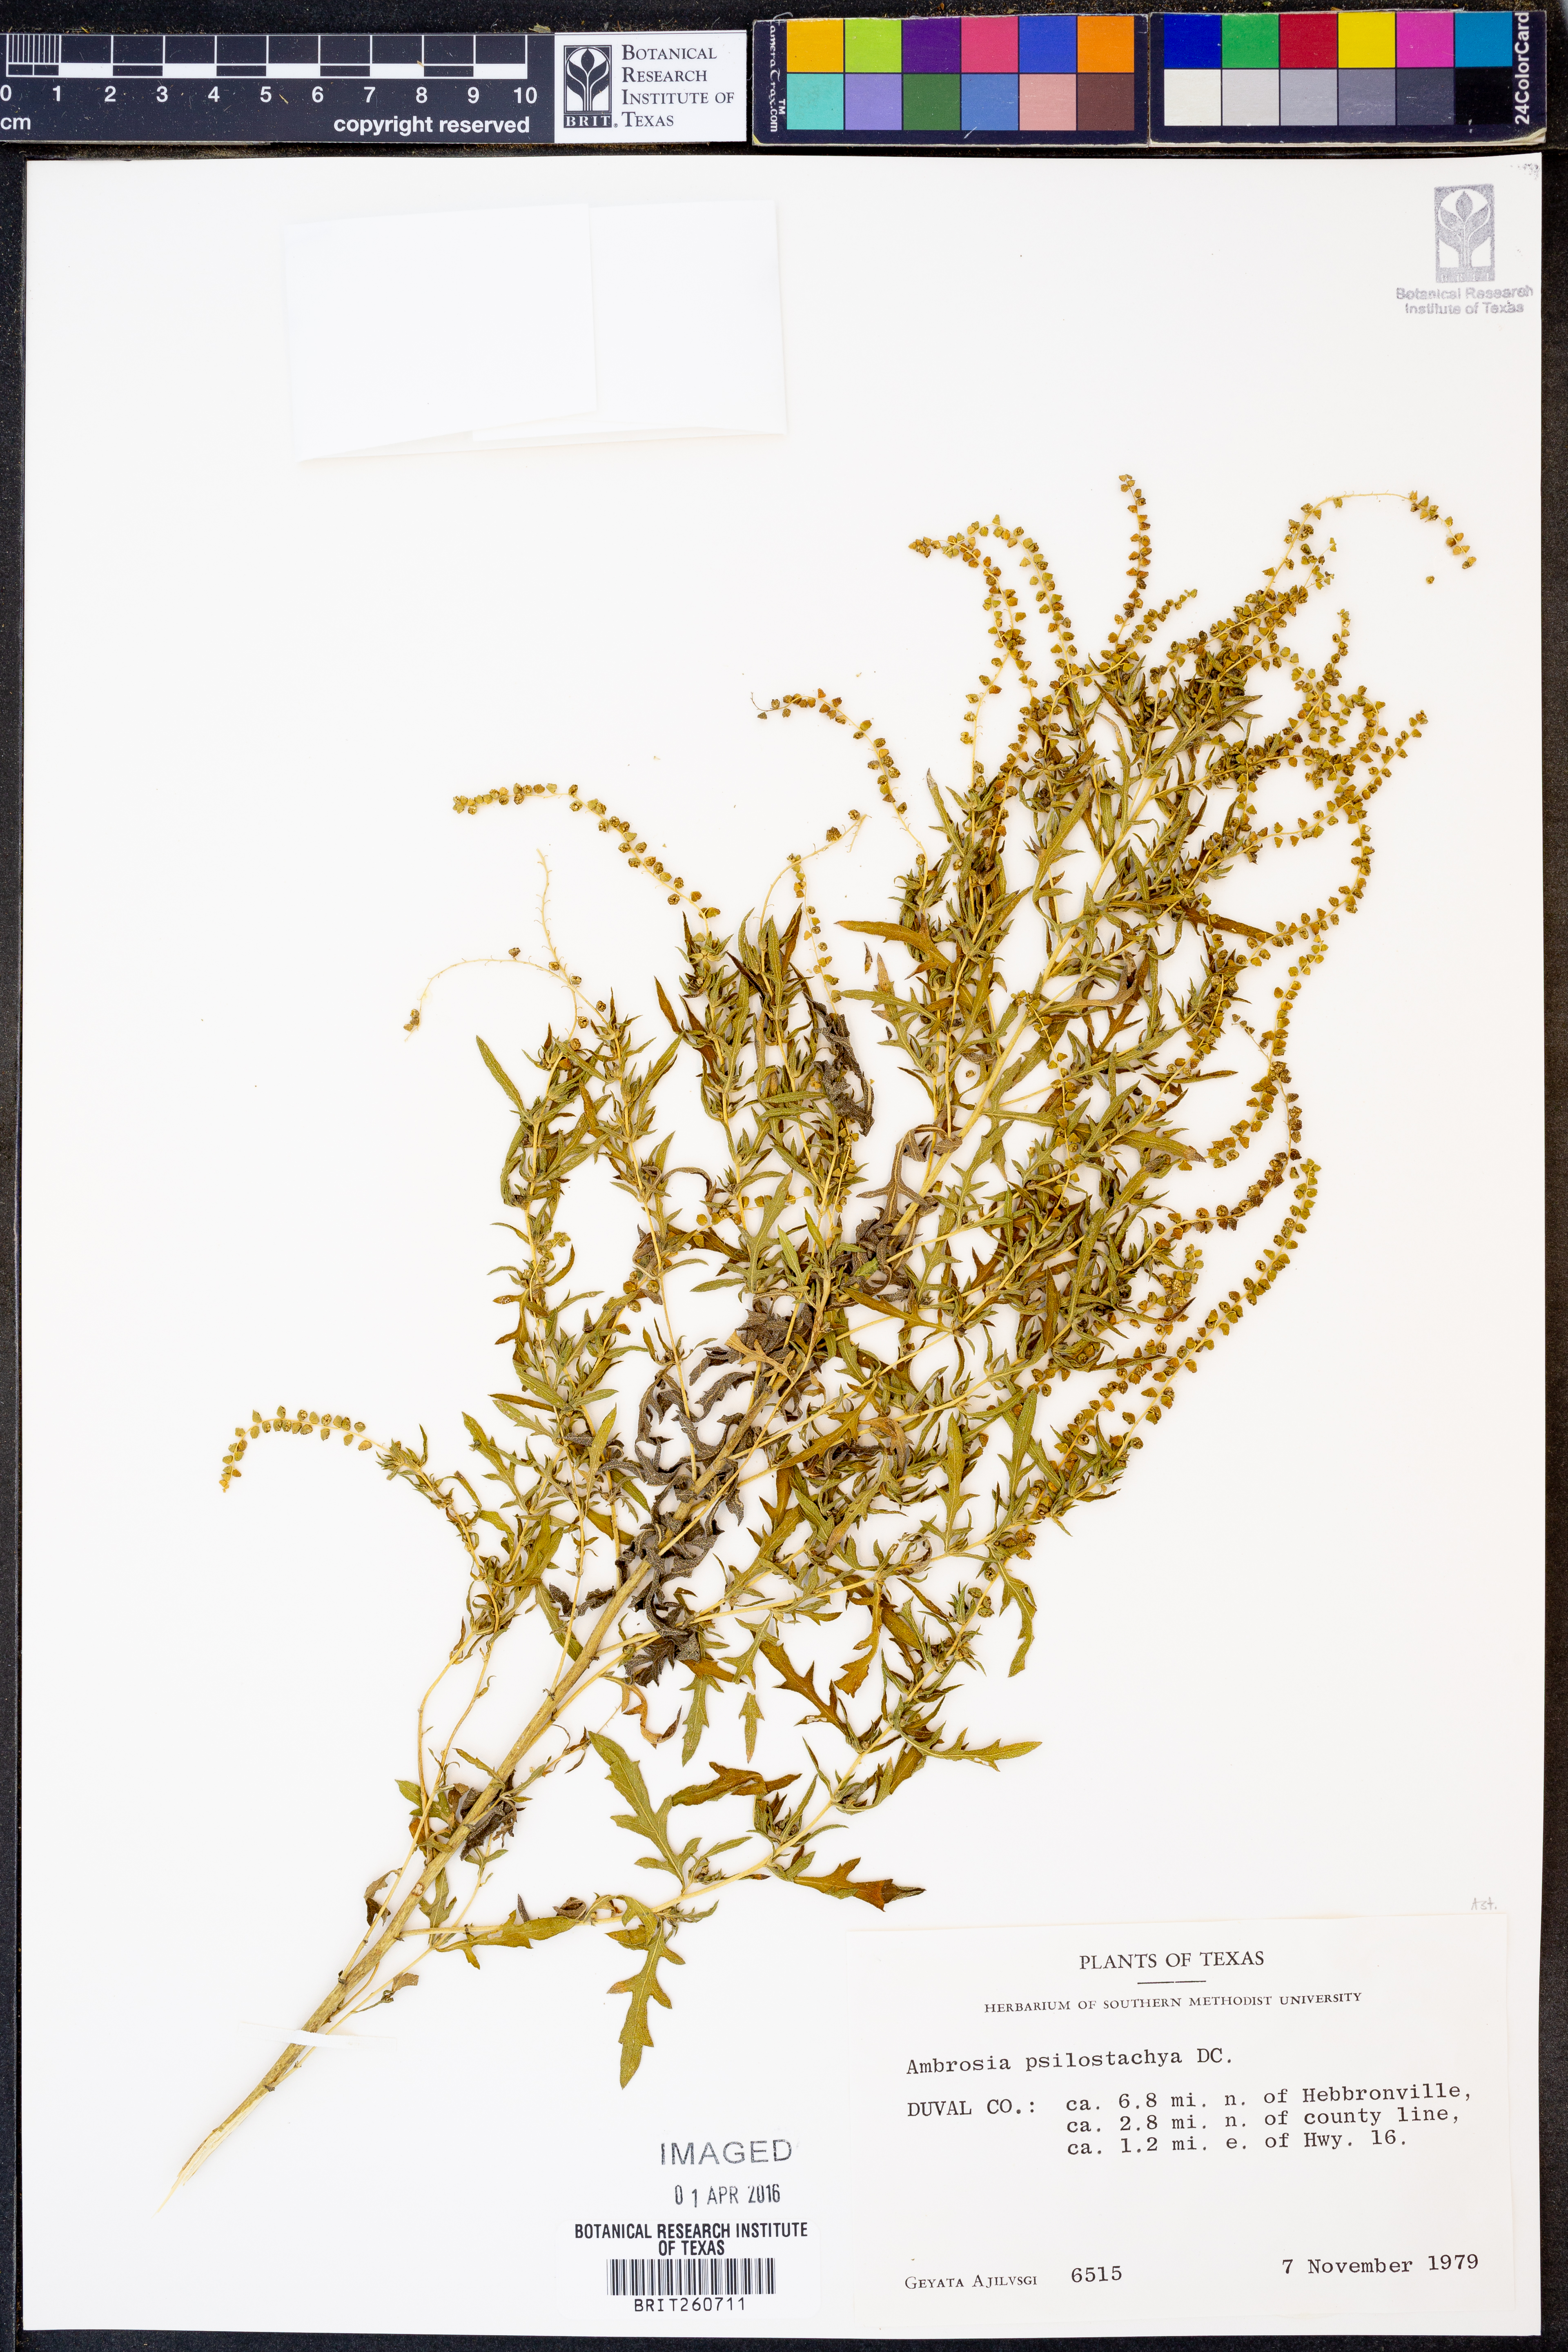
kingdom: Plantae
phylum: Tracheophyta
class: Magnoliopsida
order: Asterales
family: Asteraceae
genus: Ambrosia
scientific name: Ambrosia psilostachya
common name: Perennial ragweed
